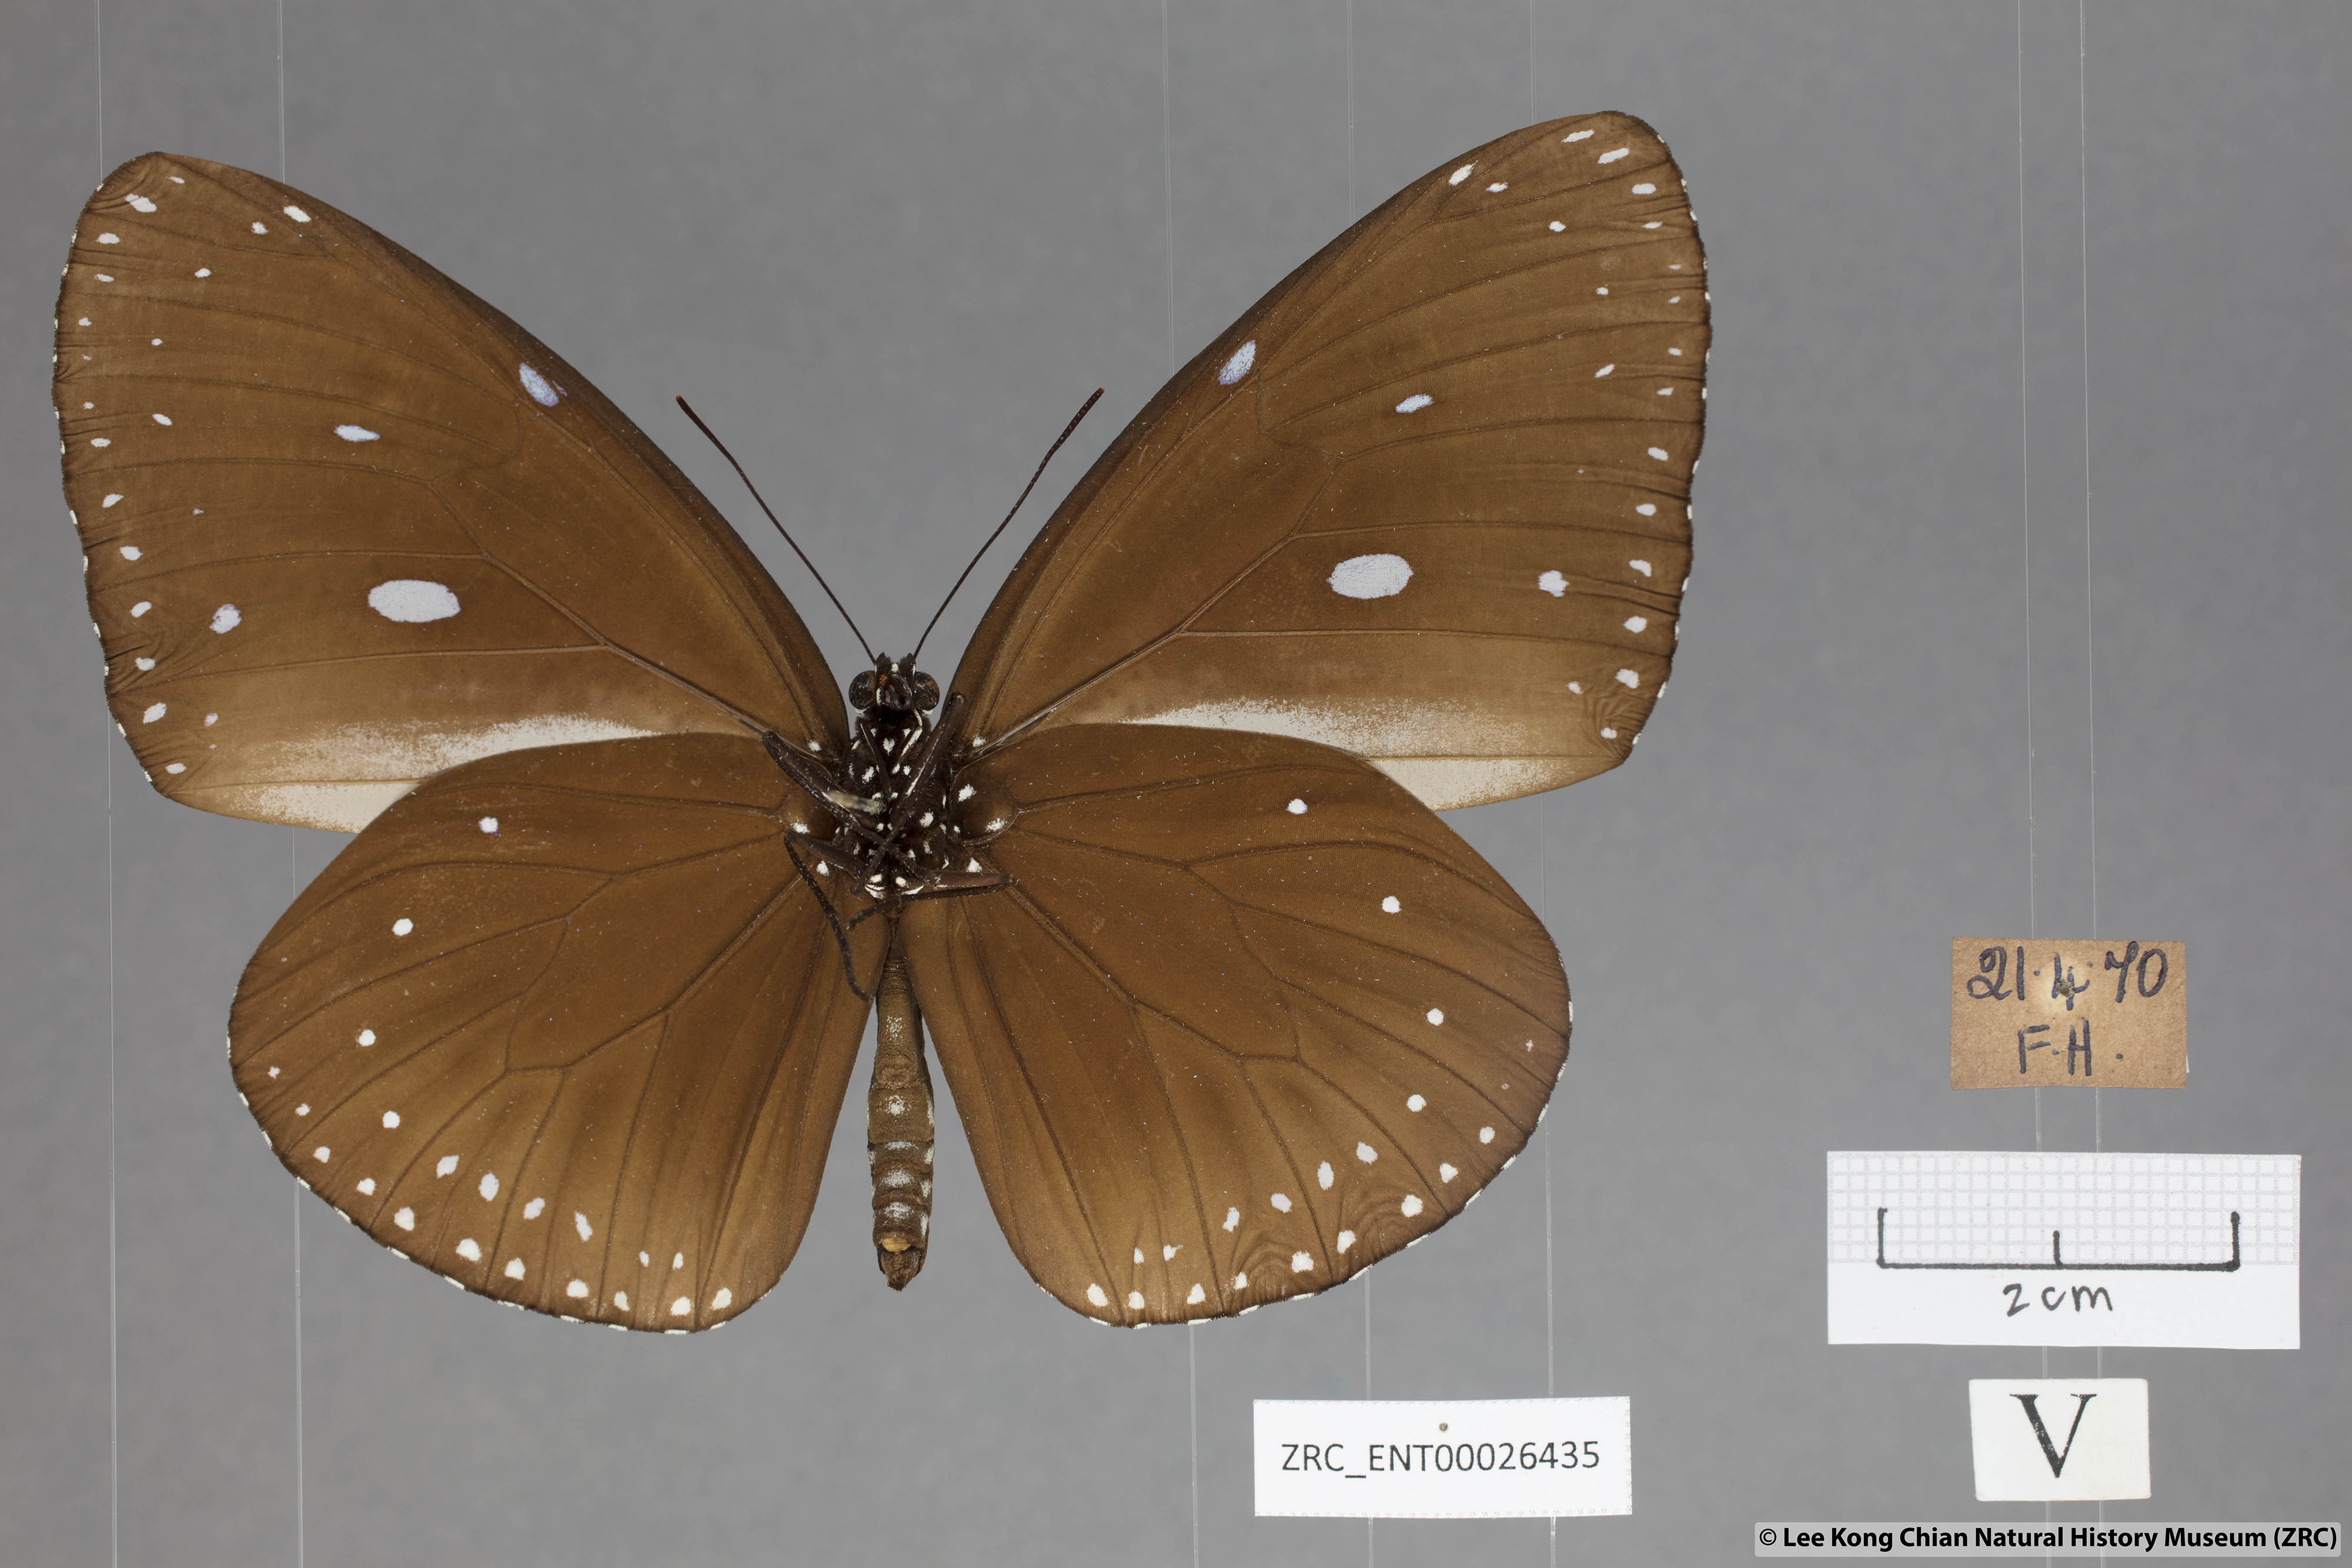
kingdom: Animalia
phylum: Arthropoda
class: Insecta
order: Lepidoptera
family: Nymphalidae
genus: Euploea
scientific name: Euploea eunice
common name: Blue-banded king crow butterfly
